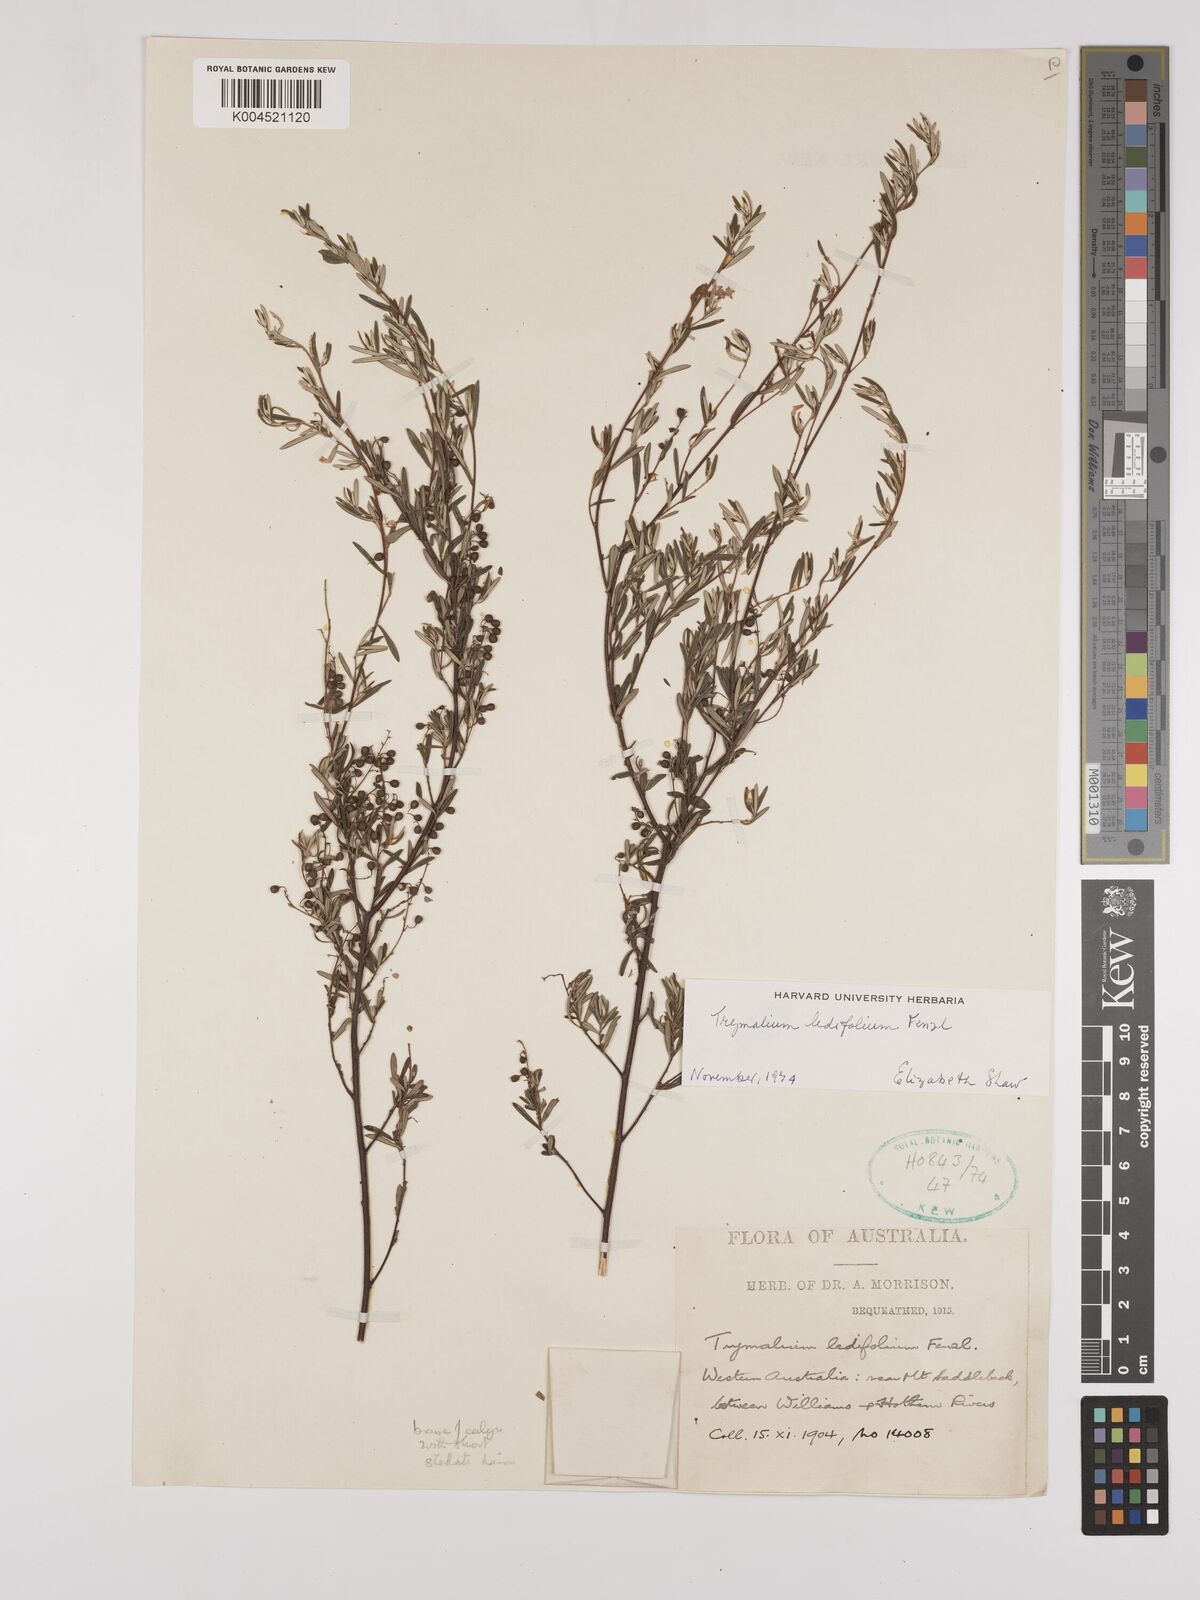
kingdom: Plantae
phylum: Tracheophyta
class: Magnoliopsida
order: Rosales
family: Rhamnaceae
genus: Trymalium
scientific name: Trymalium ledifolium
